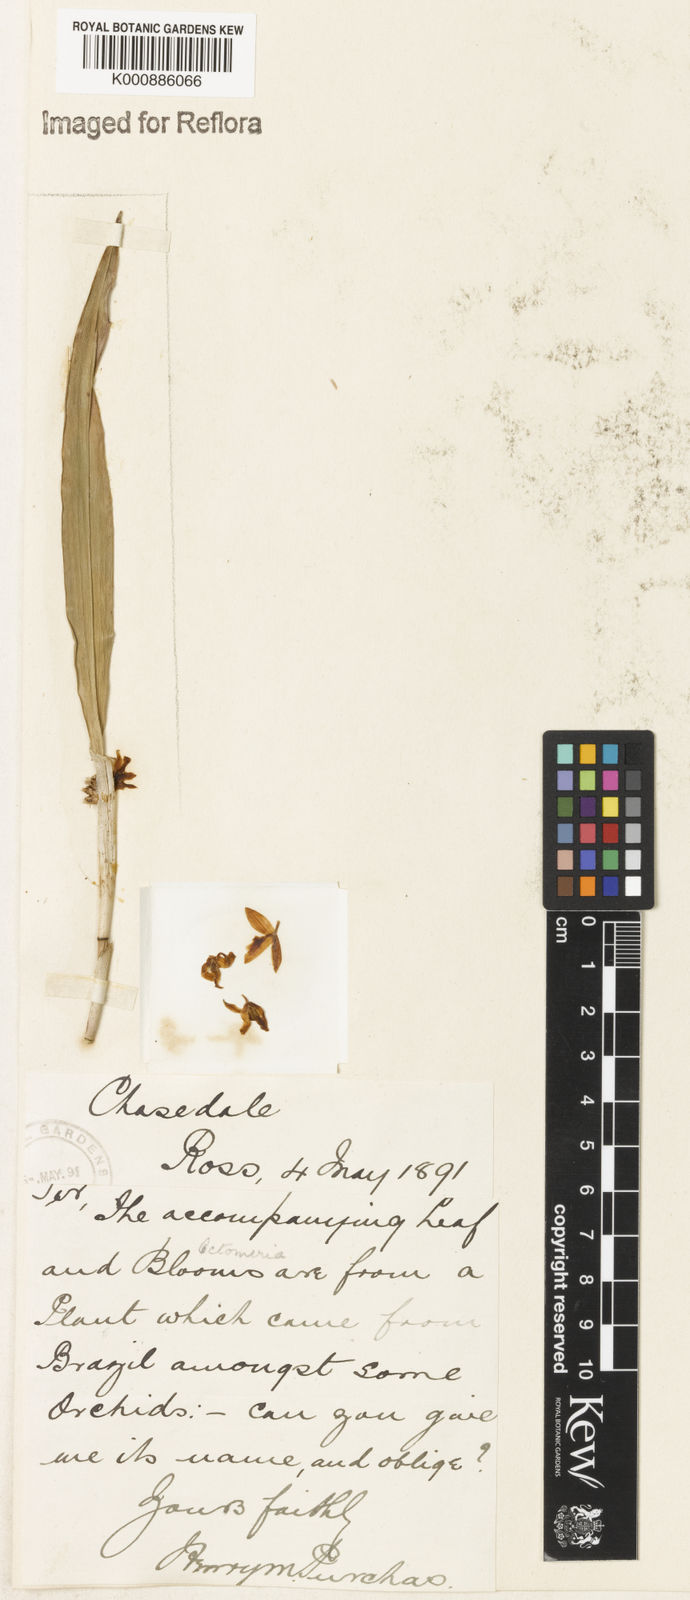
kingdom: Plantae
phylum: Tracheophyta
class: Liliopsida
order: Asparagales
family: Orchidaceae
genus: Octomeria
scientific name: Octomeria
